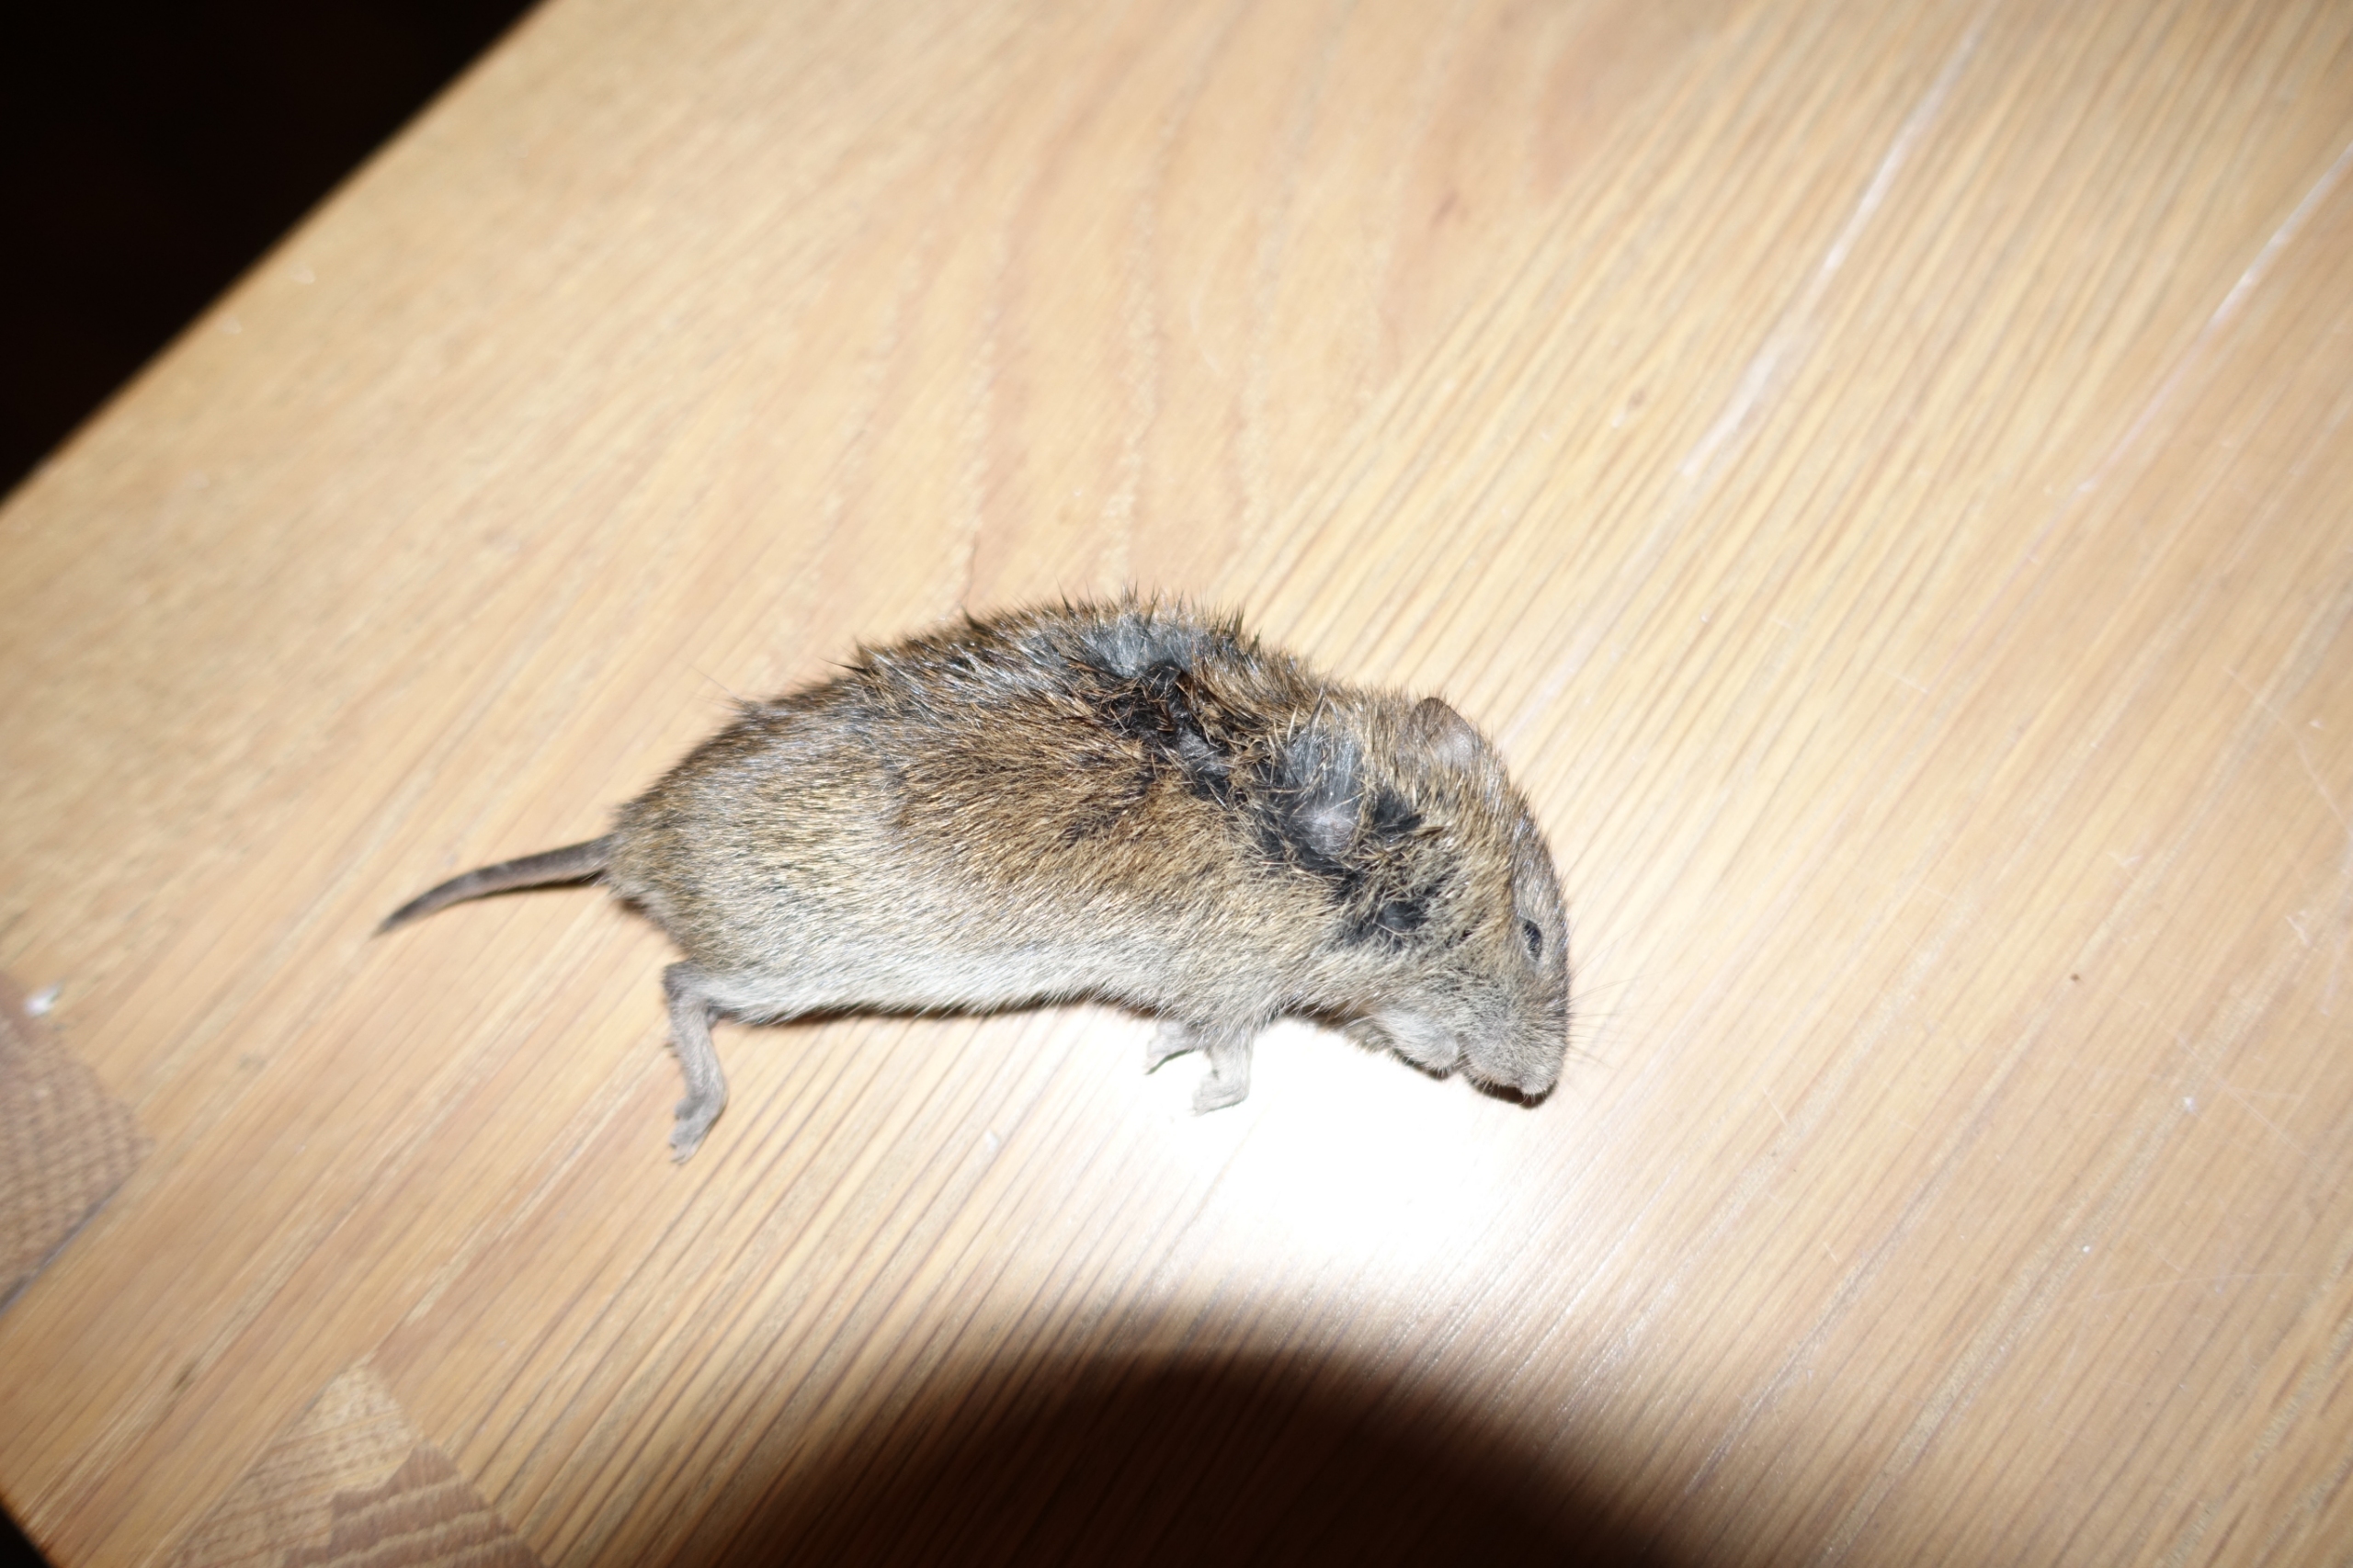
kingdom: Animalia
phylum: Chordata
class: Mammalia
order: Rodentia
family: Cricetidae
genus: Microtus
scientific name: Microtus agrestis
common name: Almindelig markmus
